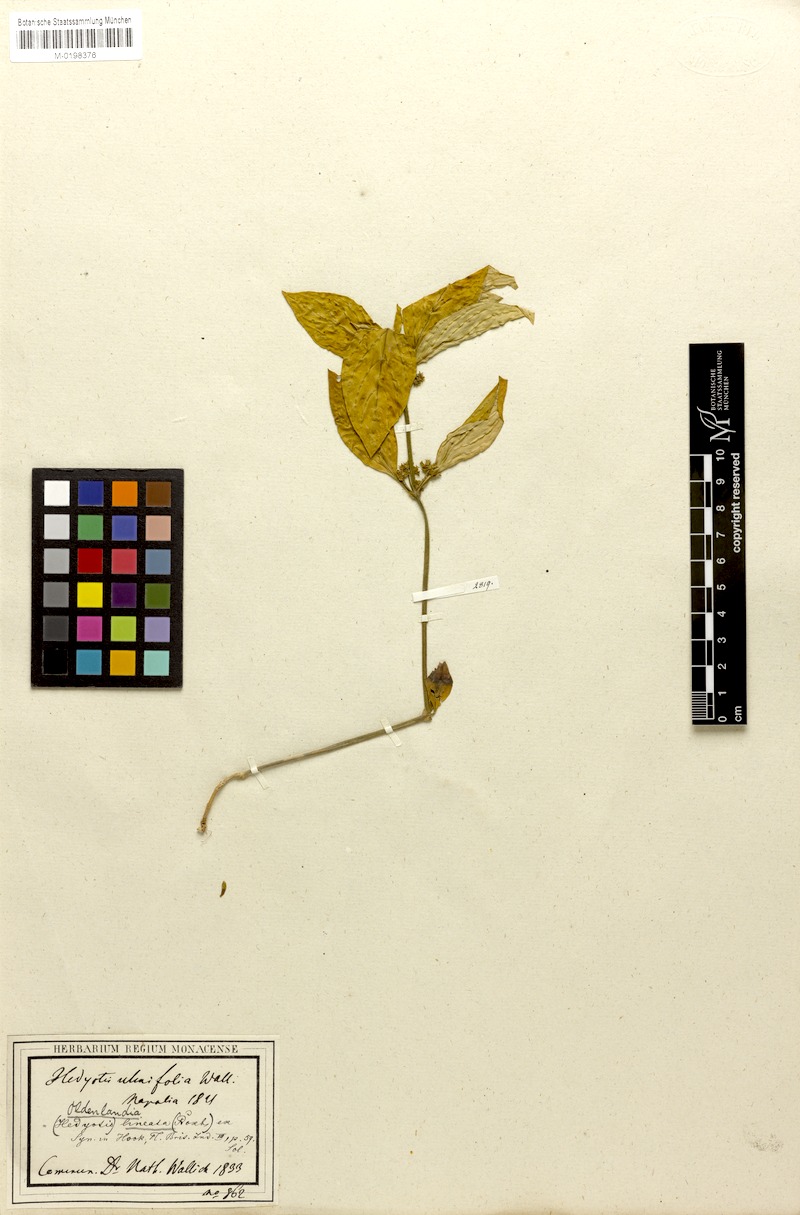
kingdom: Plantae
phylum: Tracheophyta
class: Magnoliopsida
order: Gentianales
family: Rubiaceae
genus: Exallage
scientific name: Exallage ulmifolia
